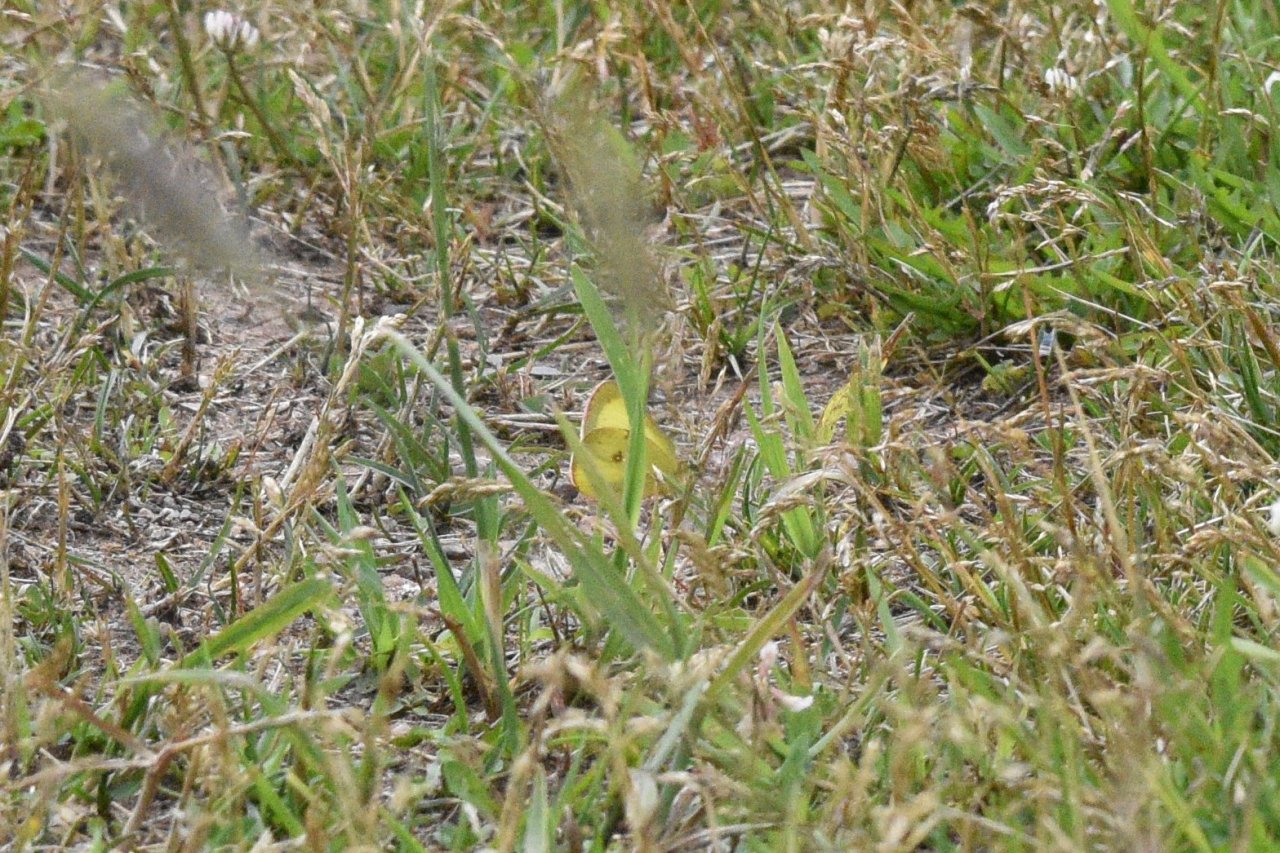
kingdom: Animalia
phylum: Arthropoda
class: Insecta
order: Lepidoptera
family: Pieridae
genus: Colias
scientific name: Colias philodice
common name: Clouded Sulphur
